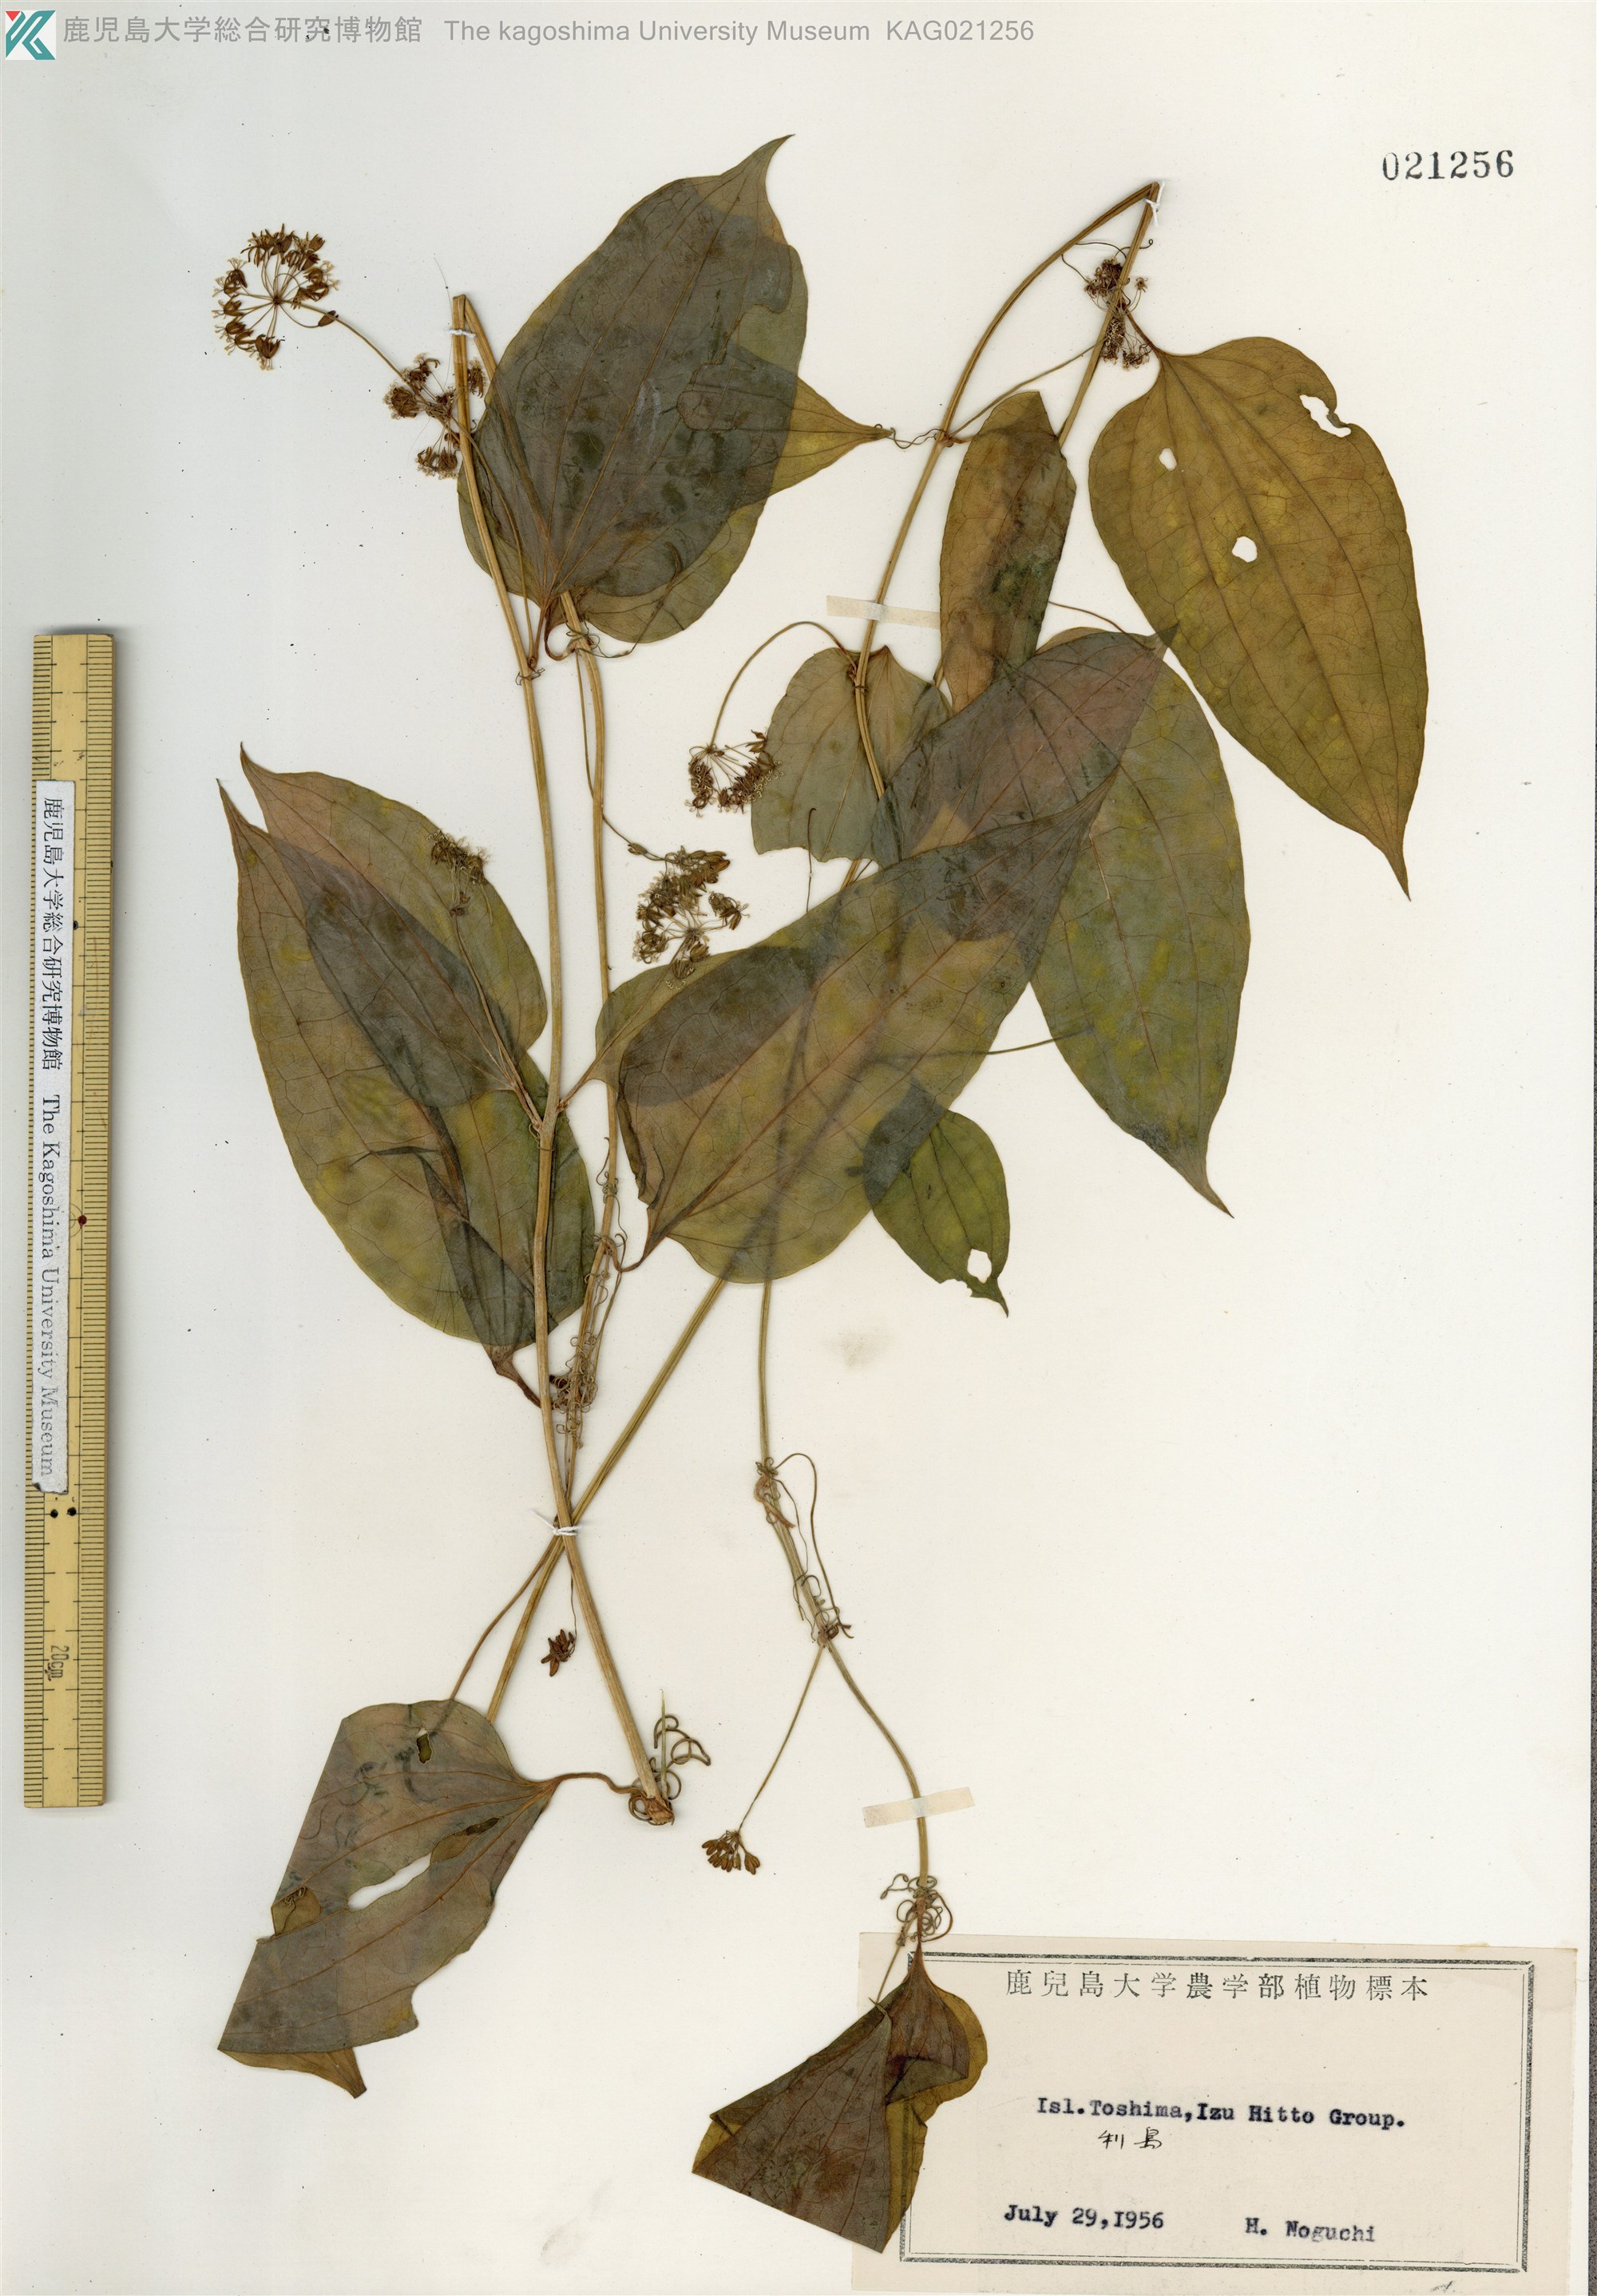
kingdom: Plantae
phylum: Tracheophyta
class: Liliopsida
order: Liliales
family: Smilacaceae
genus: Smilax
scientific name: Smilax riparia
